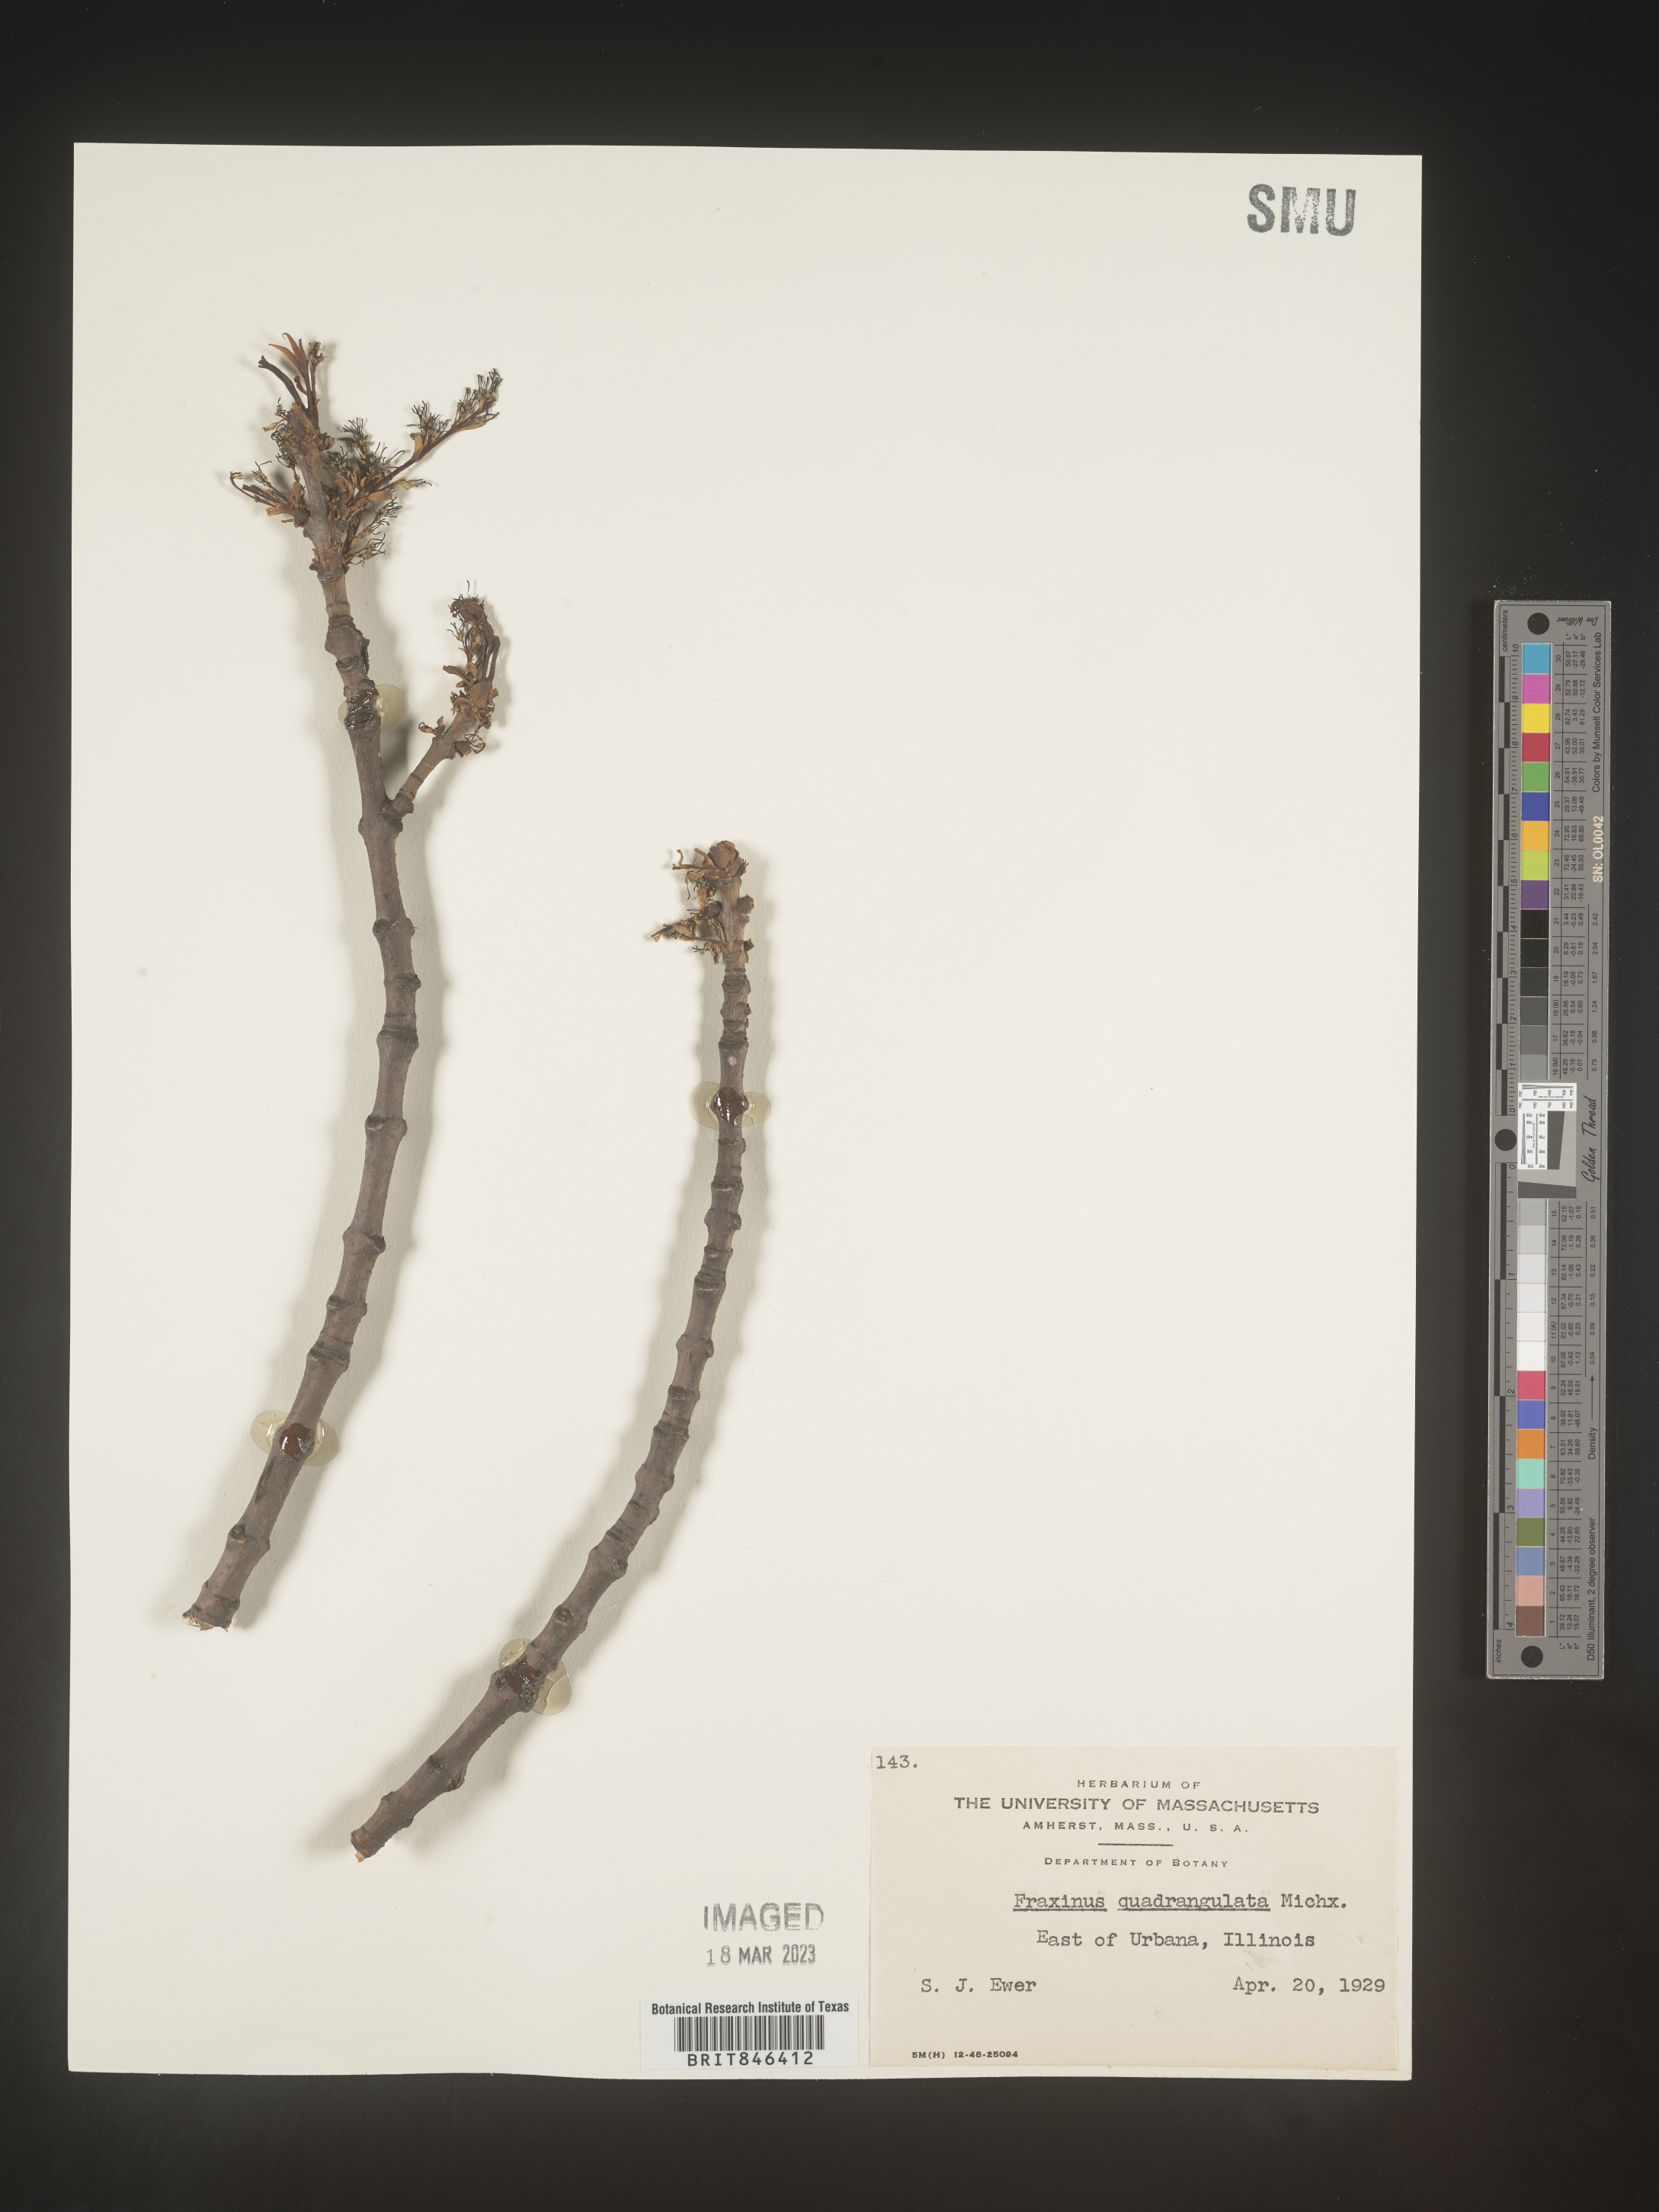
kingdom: Plantae
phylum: Tracheophyta
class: Magnoliopsida
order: Lamiales
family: Oleaceae
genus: Fraxinus
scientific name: Fraxinus quadrangulata
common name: Blue ash
